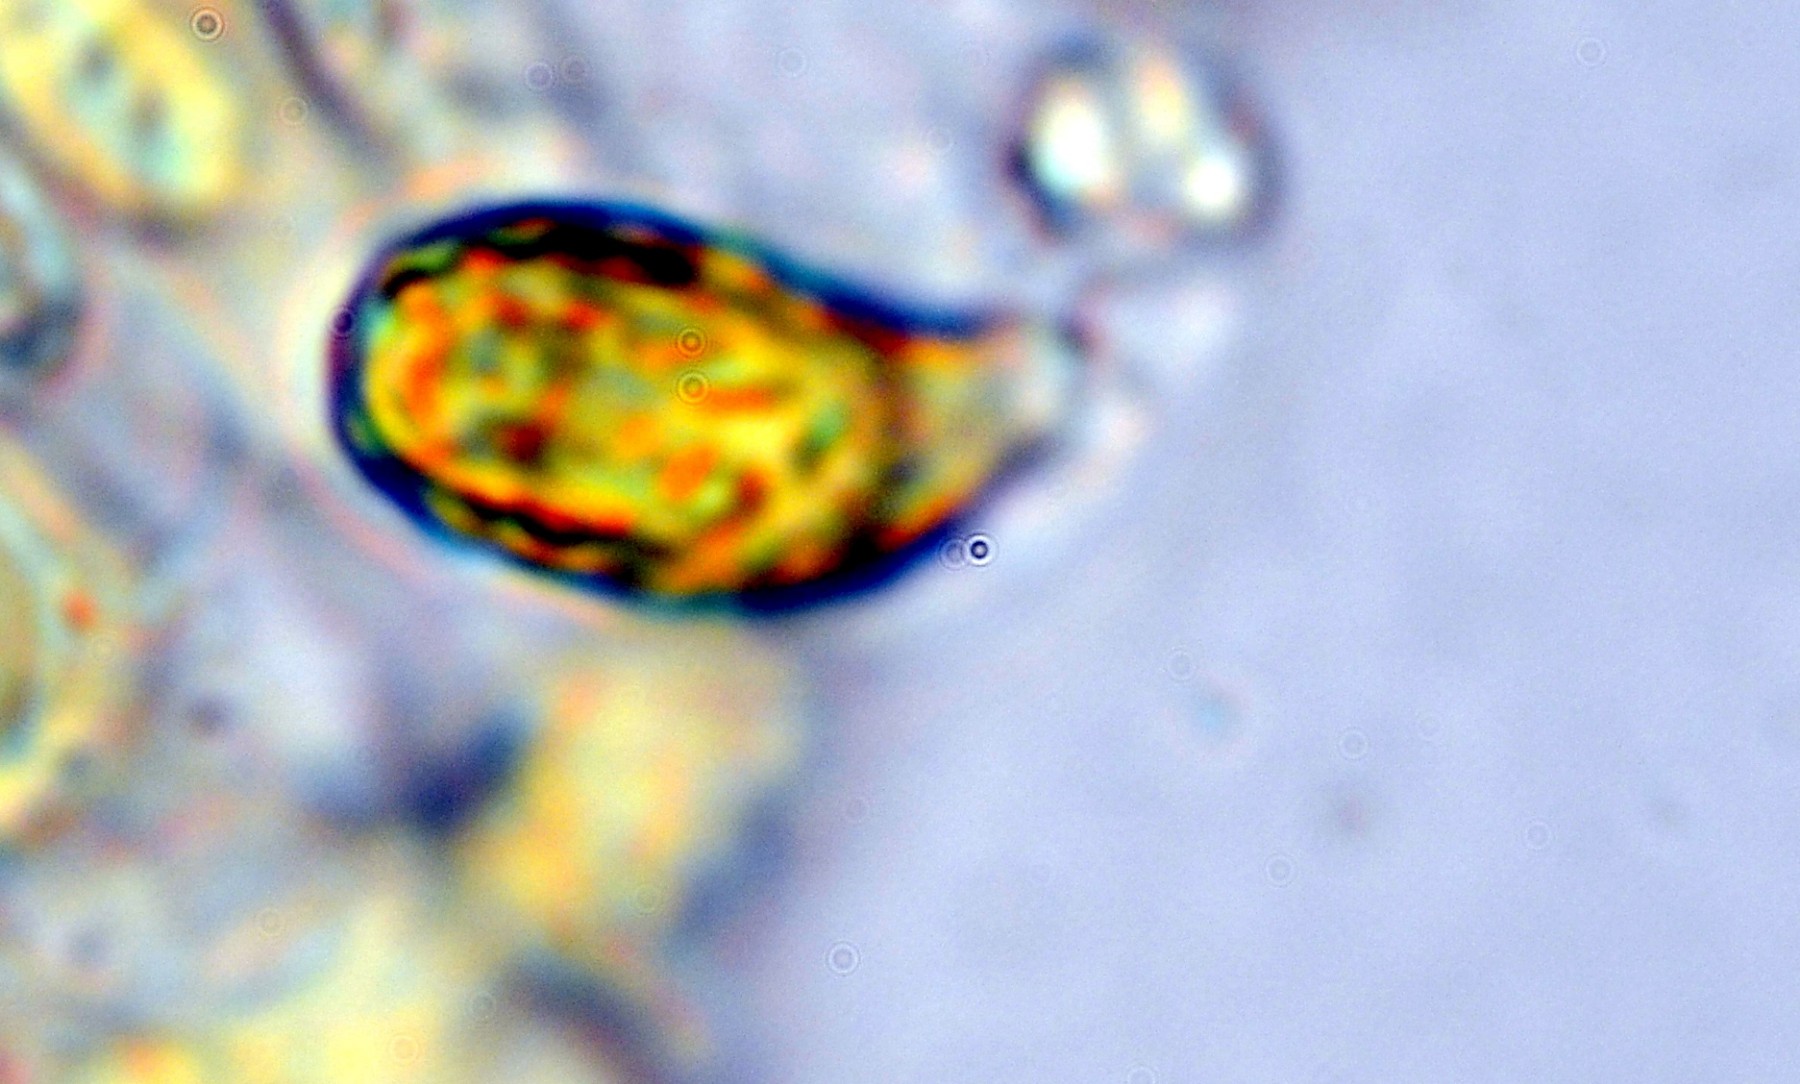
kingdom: Fungi
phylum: Basidiomycota
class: Agaricomycetes
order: Gomphales
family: Gomphaceae
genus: Ramaria
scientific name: Ramaria
